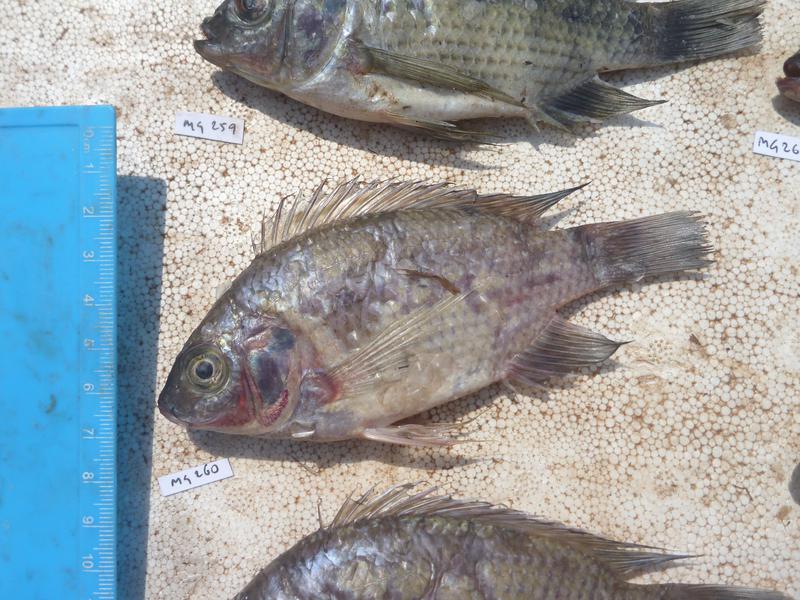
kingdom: Animalia
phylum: Chordata
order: Perciformes
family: Cichlidae
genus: Oreochromis
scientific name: Oreochromis upembae
